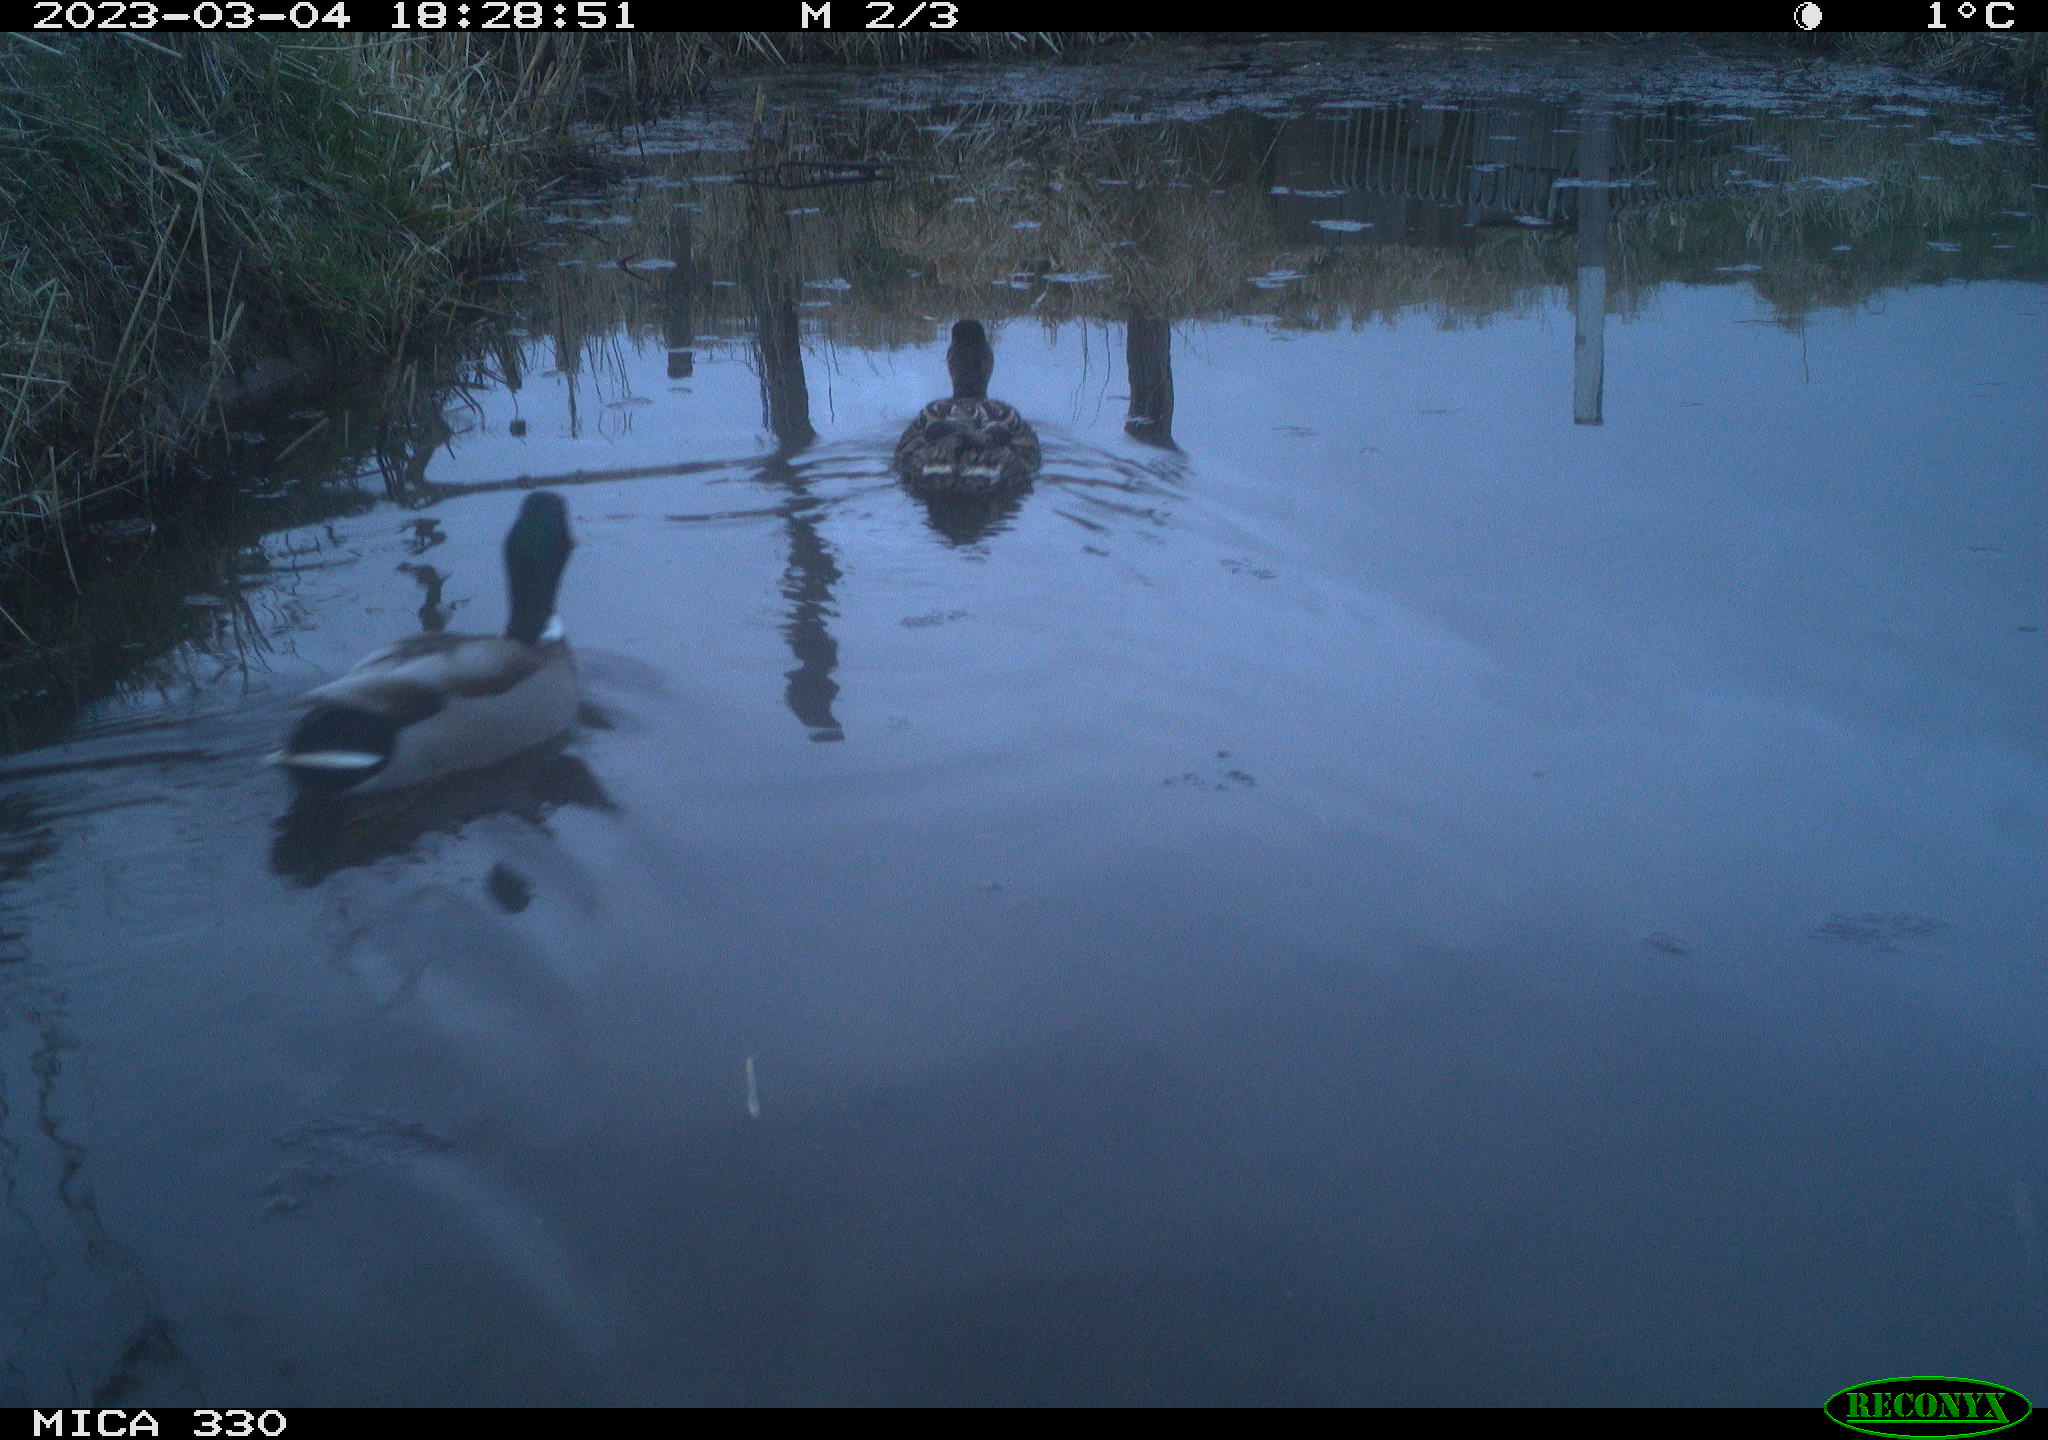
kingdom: Animalia
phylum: Chordata
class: Aves
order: Anseriformes
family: Anatidae
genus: Anas
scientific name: Anas
